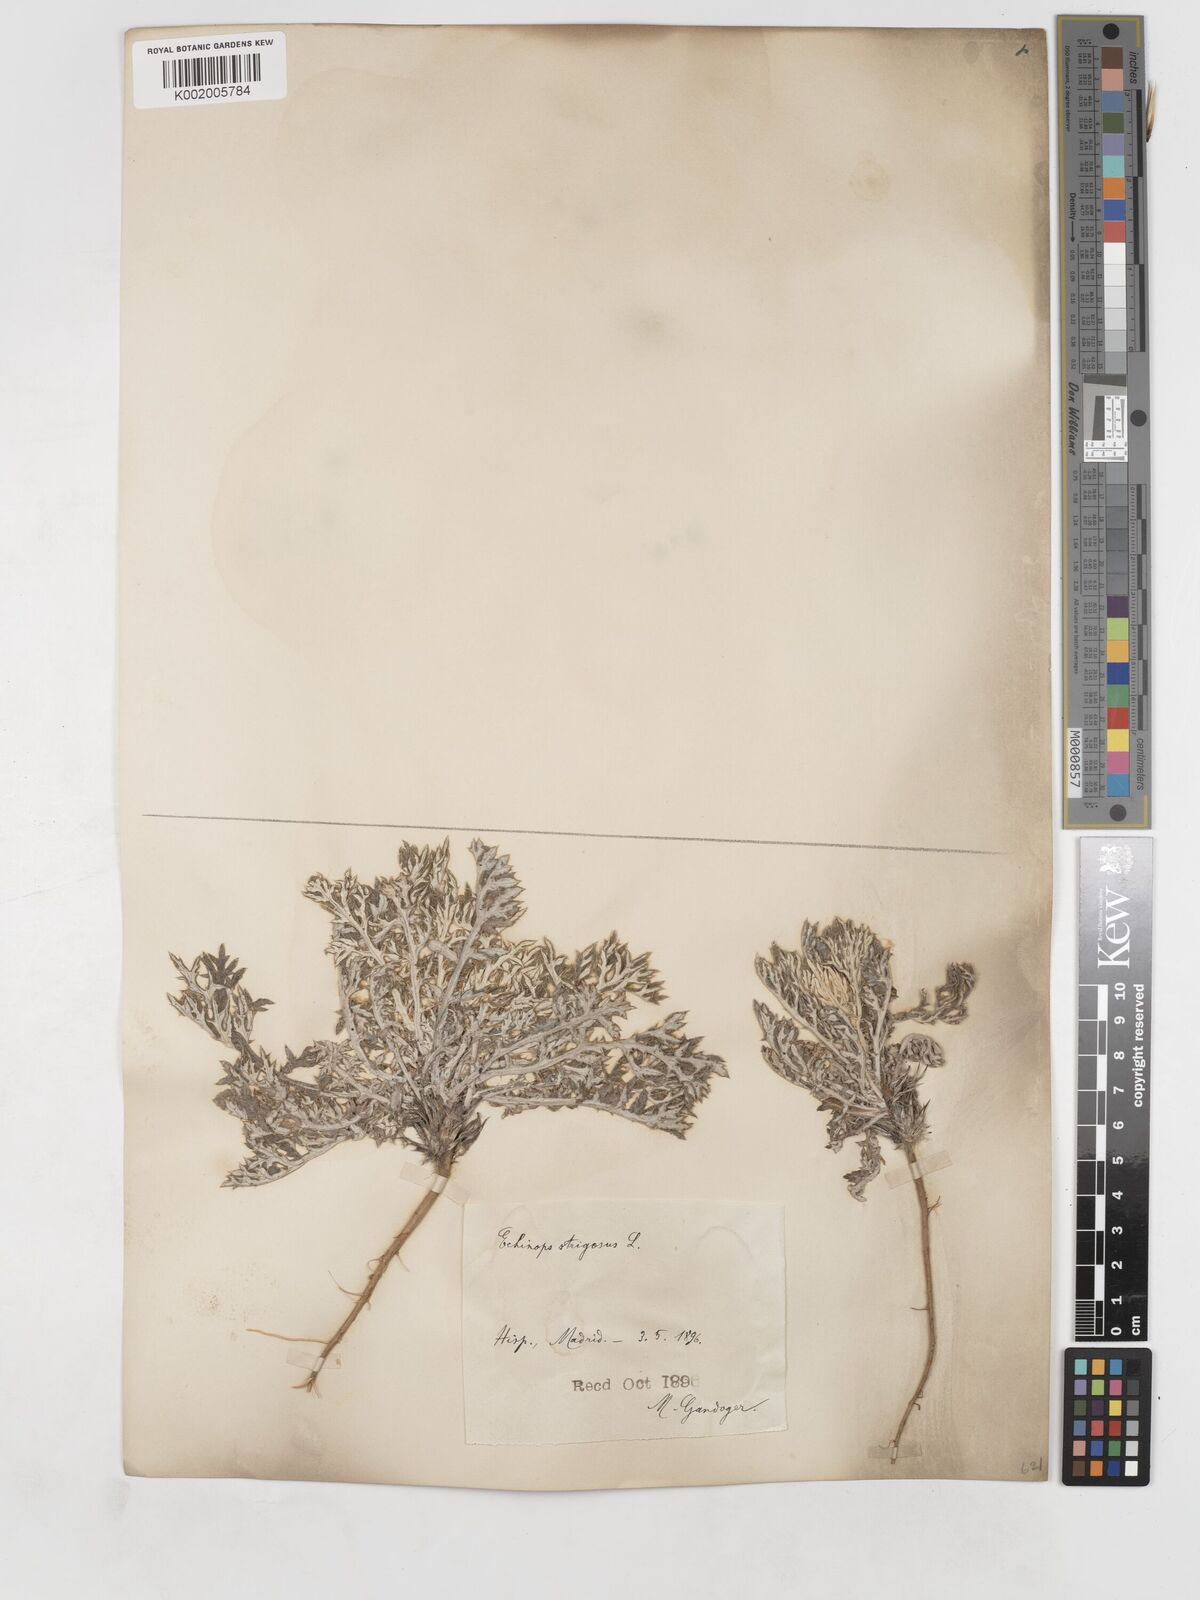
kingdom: Plantae
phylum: Tracheophyta
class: Magnoliopsida
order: Asterales
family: Asteraceae
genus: Echinops
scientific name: Echinops strigosus
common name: Rough-leaf globe thistle
